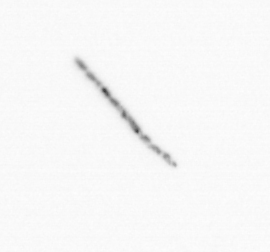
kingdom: Chromista
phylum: Ochrophyta
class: Bacillariophyceae
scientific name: Bacillariophyceae
